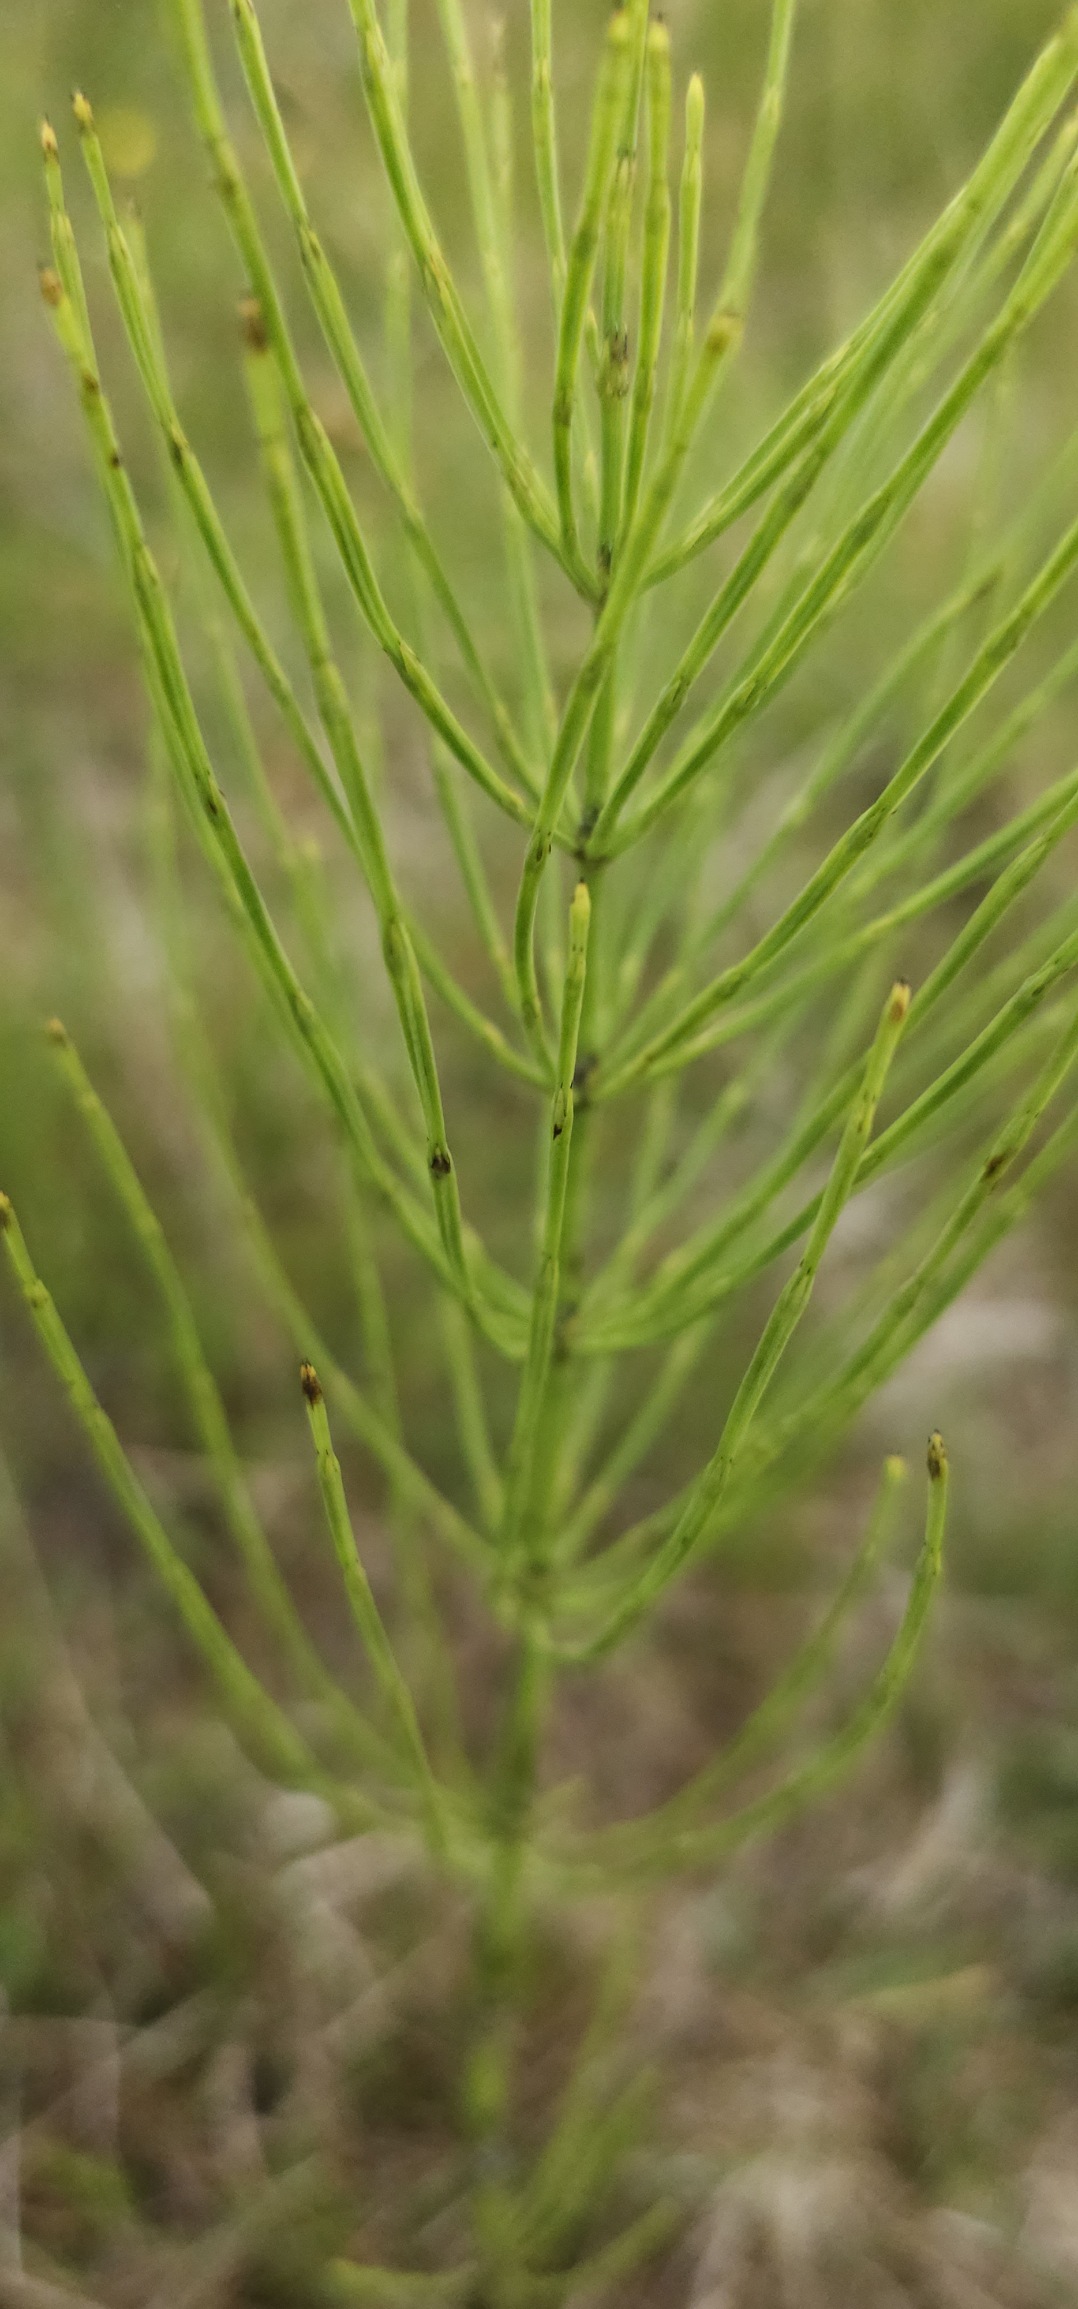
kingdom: Plantae
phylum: Tracheophyta
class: Polypodiopsida
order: Equisetales
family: Equisetaceae
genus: Equisetum
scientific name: Equisetum arvense
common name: Ager-padderok
